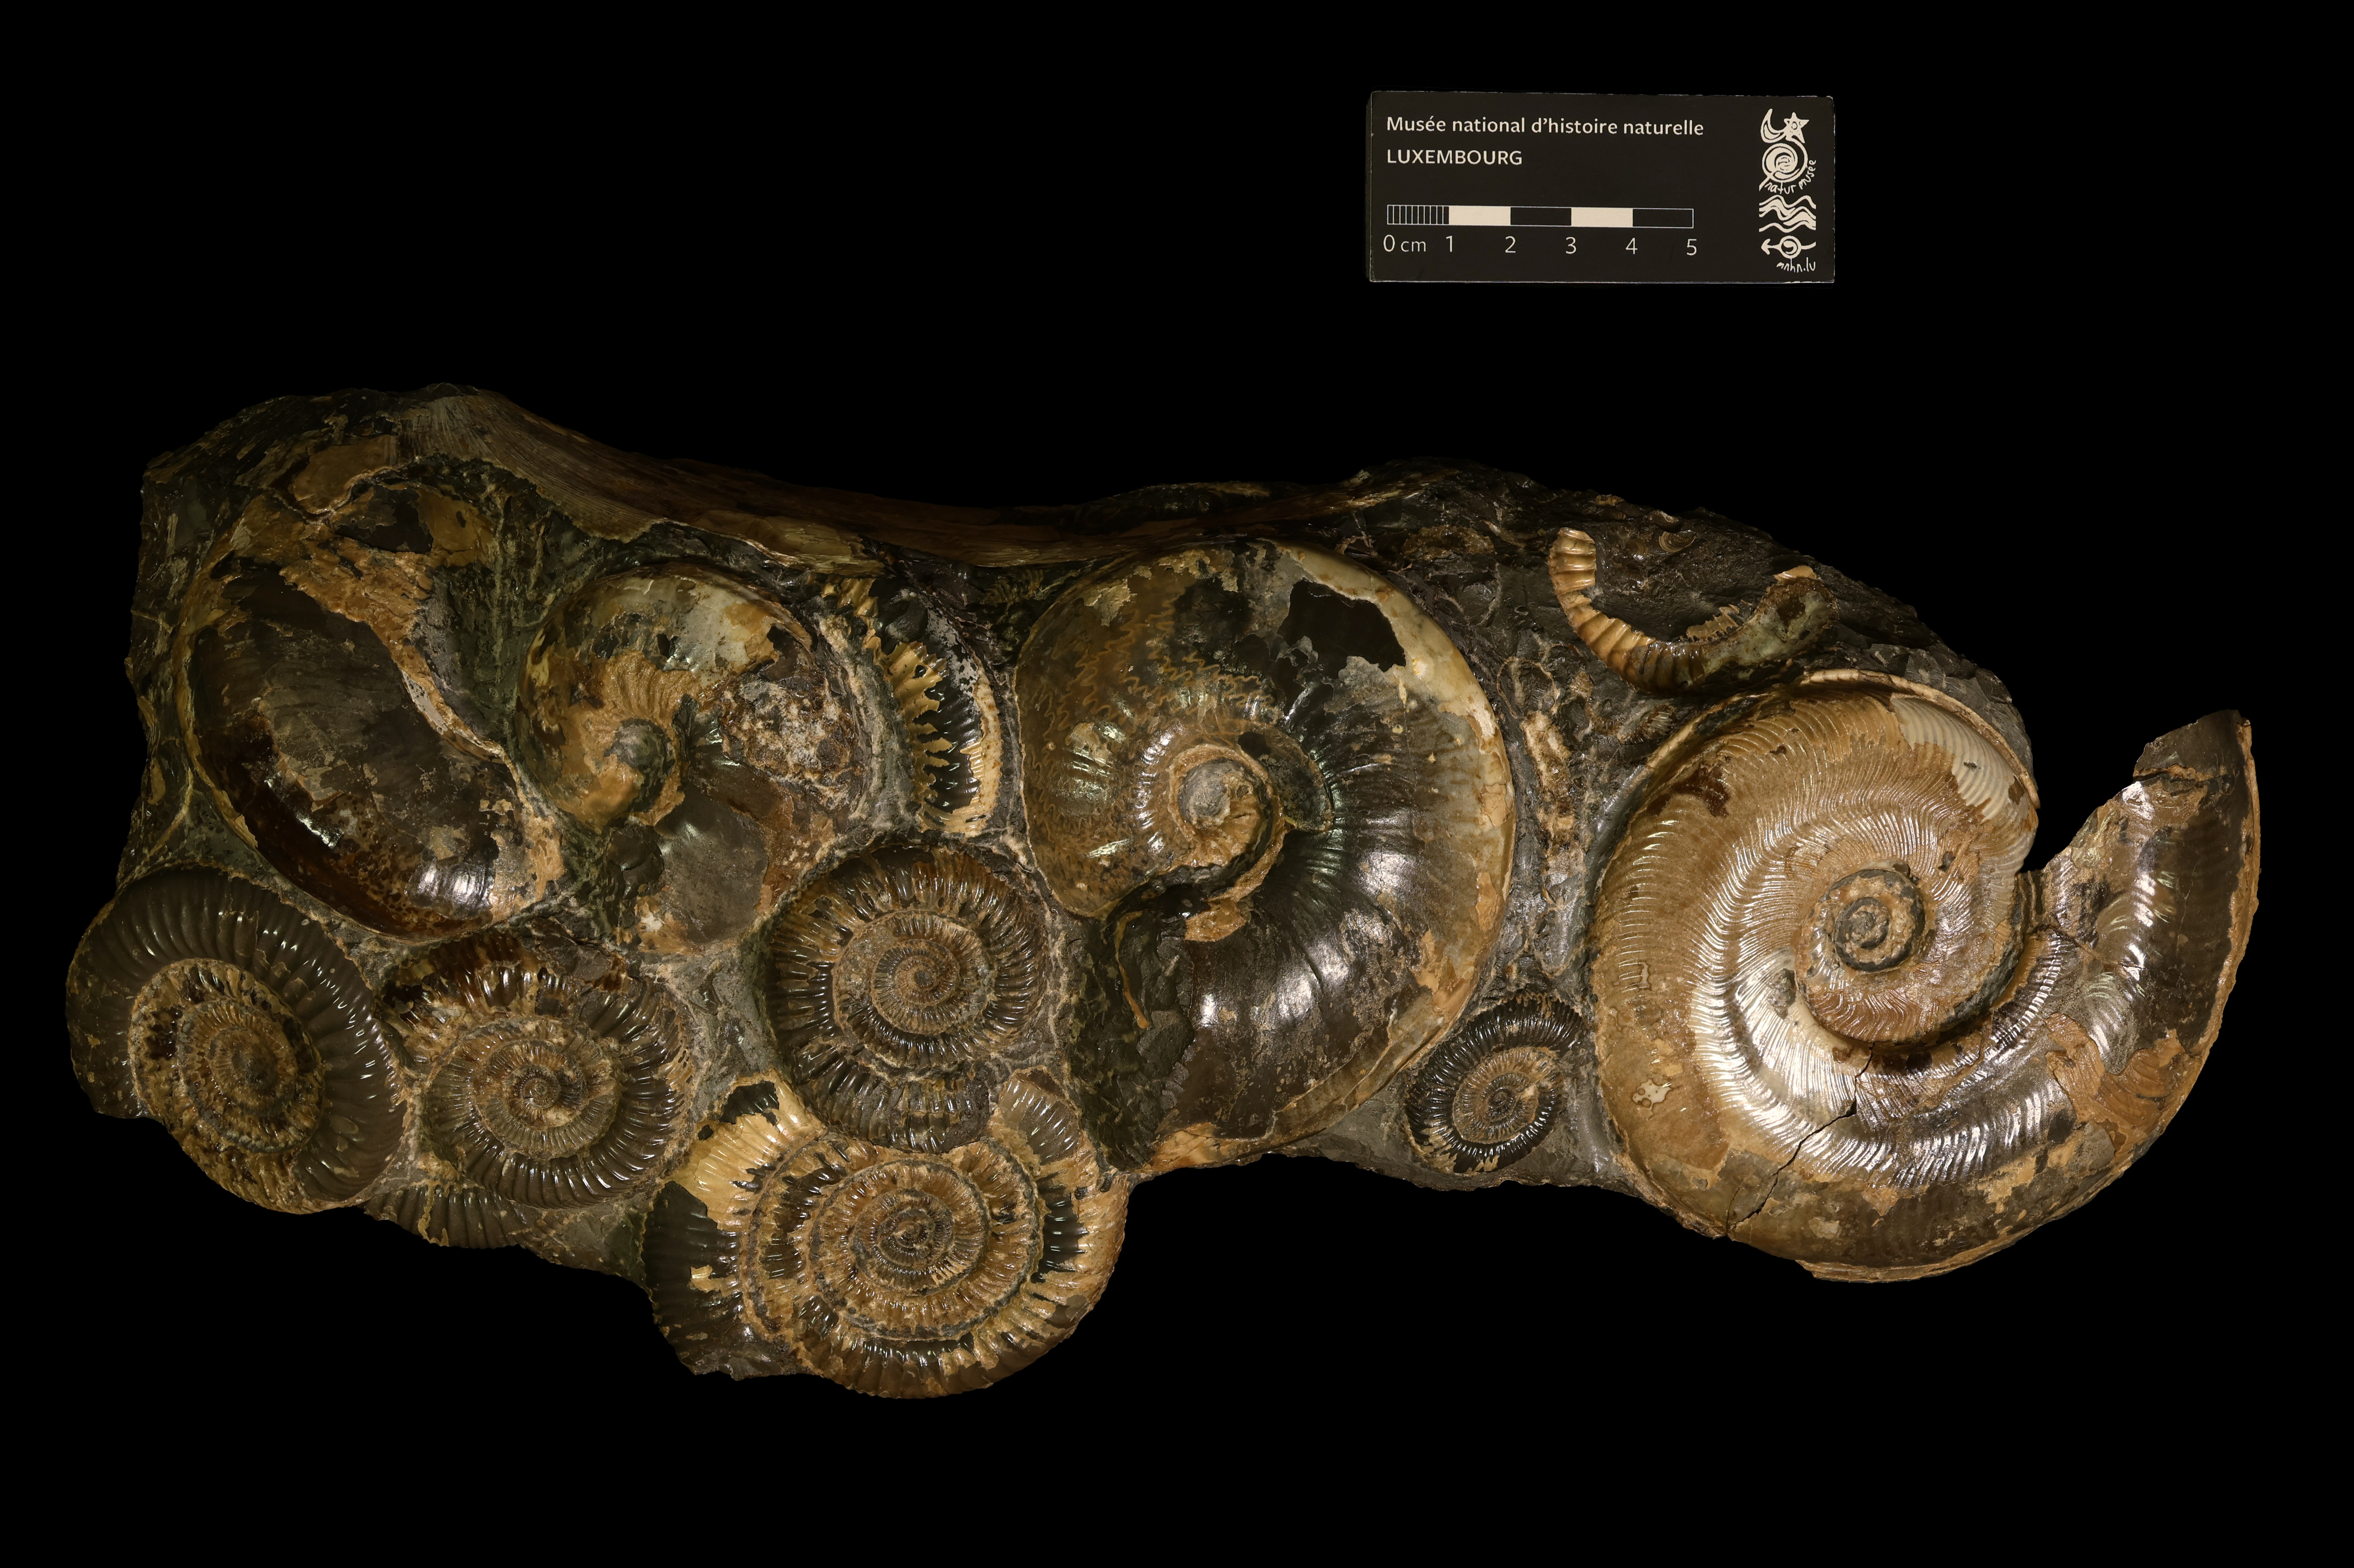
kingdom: Animalia
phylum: Mollusca
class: Cephalopoda
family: Hildoceratidae
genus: Frechiella
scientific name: Frechiella subcarinata
